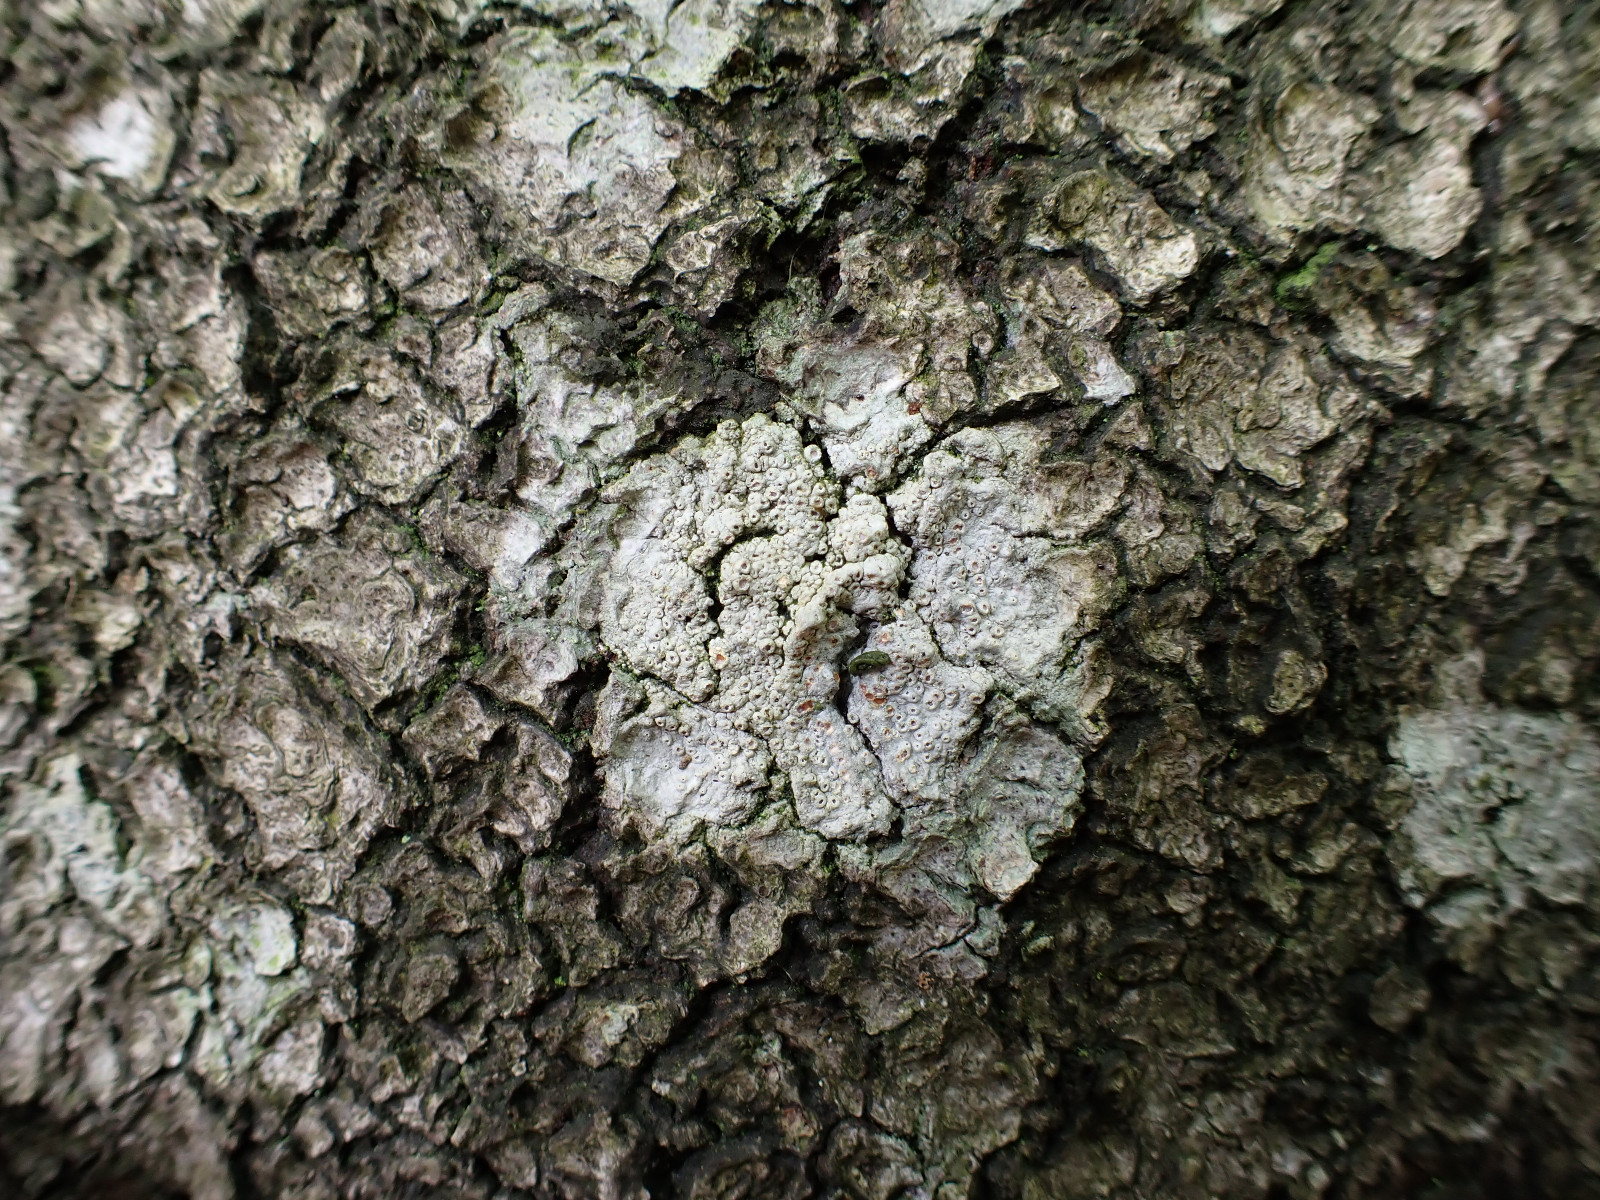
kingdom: Fungi
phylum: Ascomycota
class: Lecanoromycetes
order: Ostropales
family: Graphidaceae
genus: Thelotrema
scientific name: Thelotrema lepadinum
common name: almindelig slørkantlav
